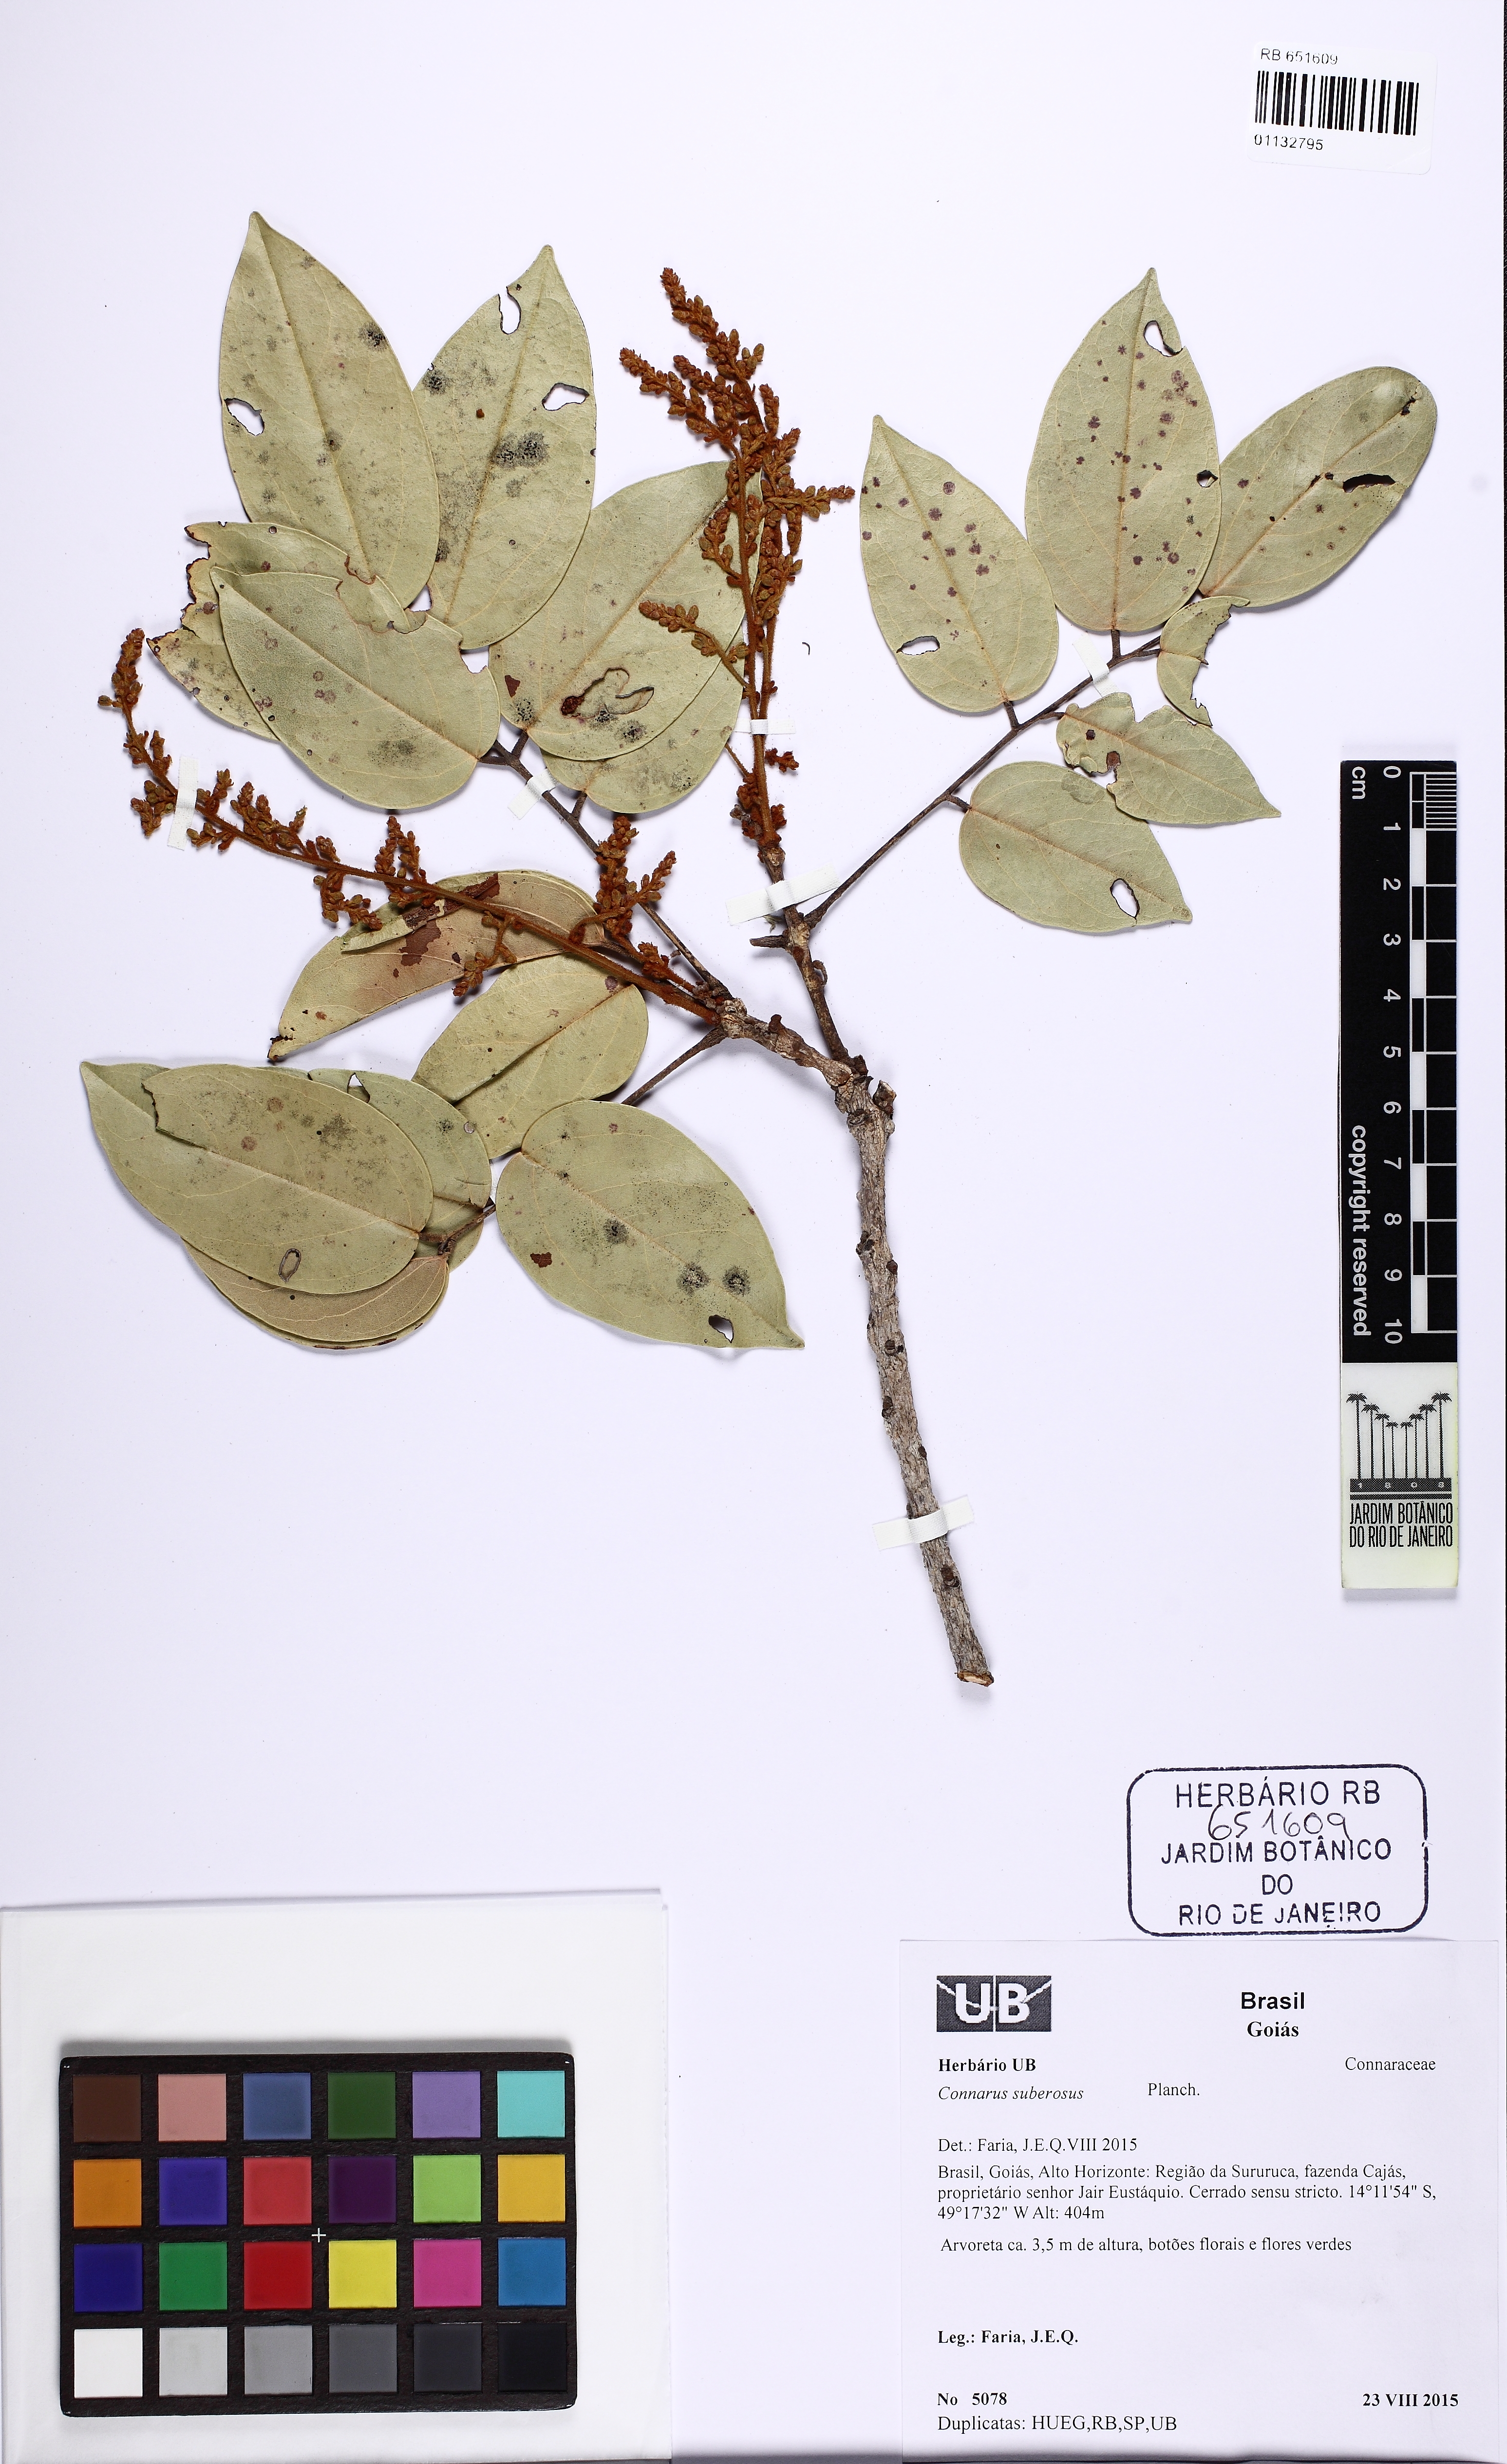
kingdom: Plantae
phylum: Tracheophyta
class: Magnoliopsida
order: Oxalidales
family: Connaraceae
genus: Connarus
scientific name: Connarus suberosus
